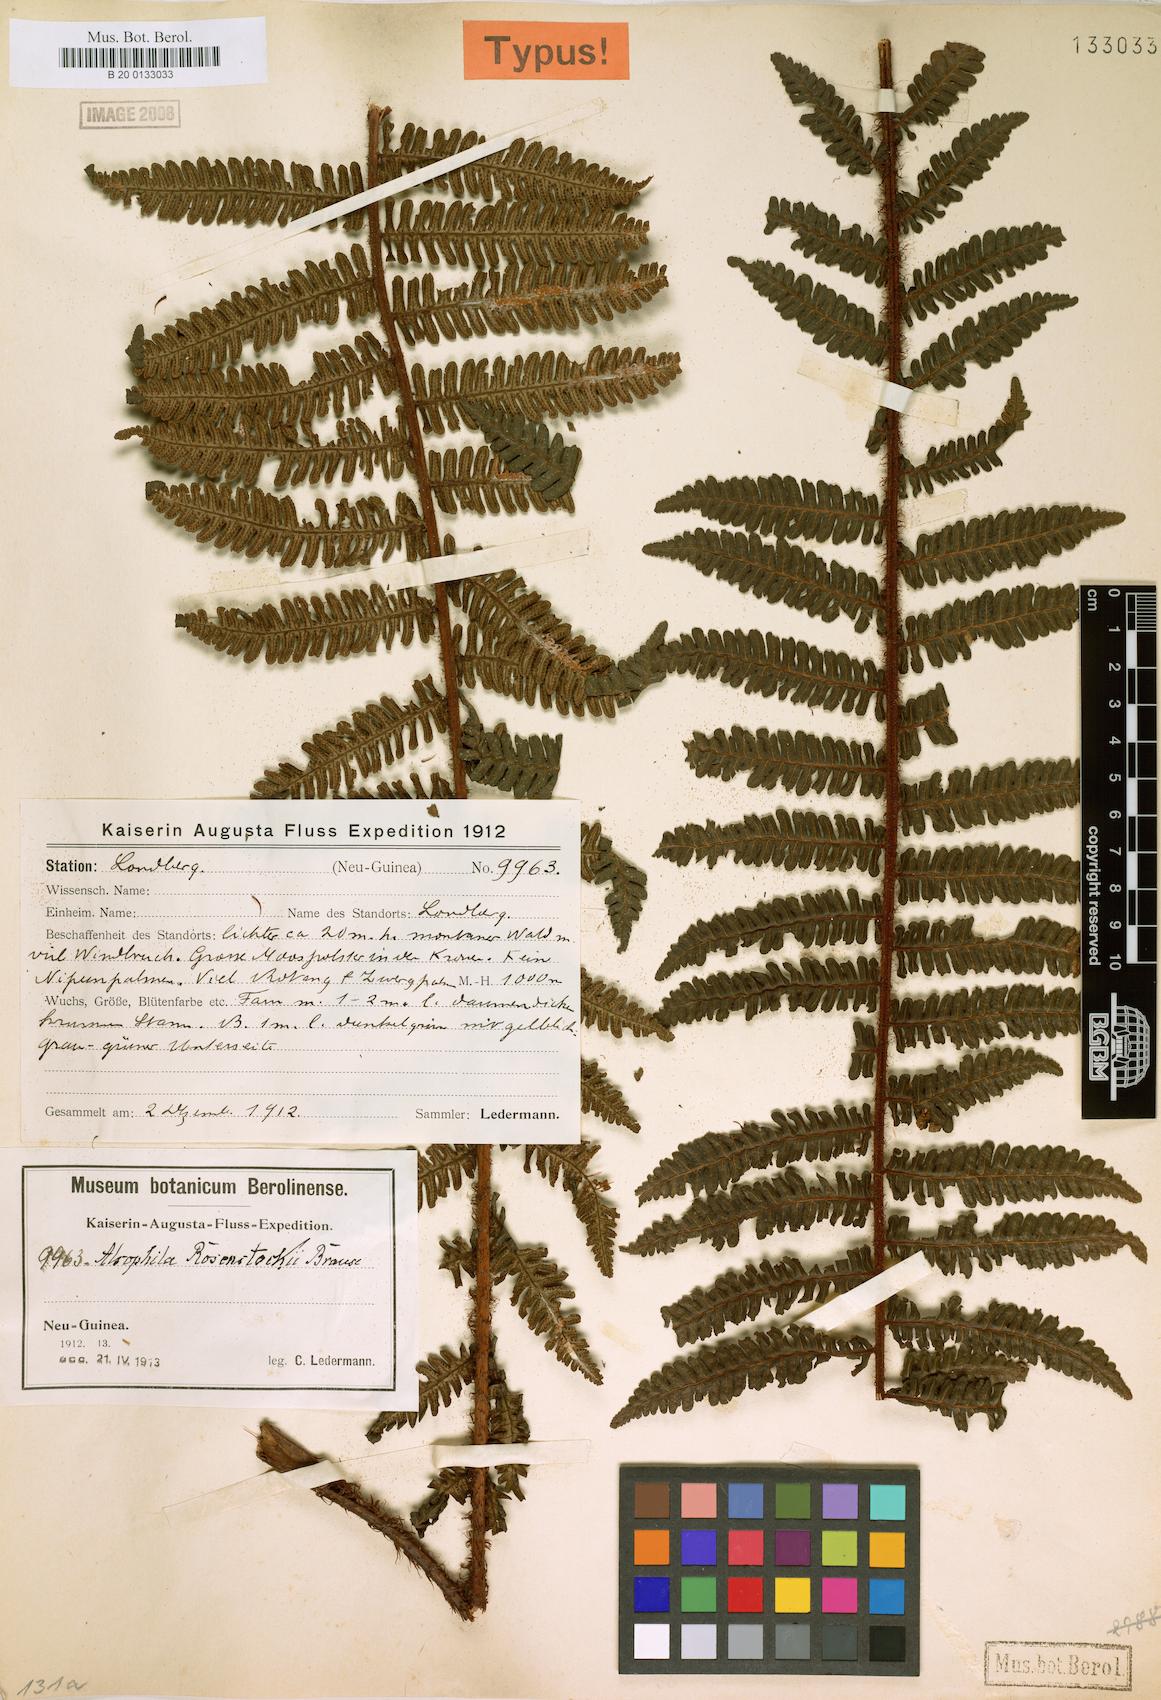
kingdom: Plantae
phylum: Tracheophyta
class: Polypodiopsida
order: Cyatheales
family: Cyatheaceae
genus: Alsophila
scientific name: Alsophila rosenstockii
